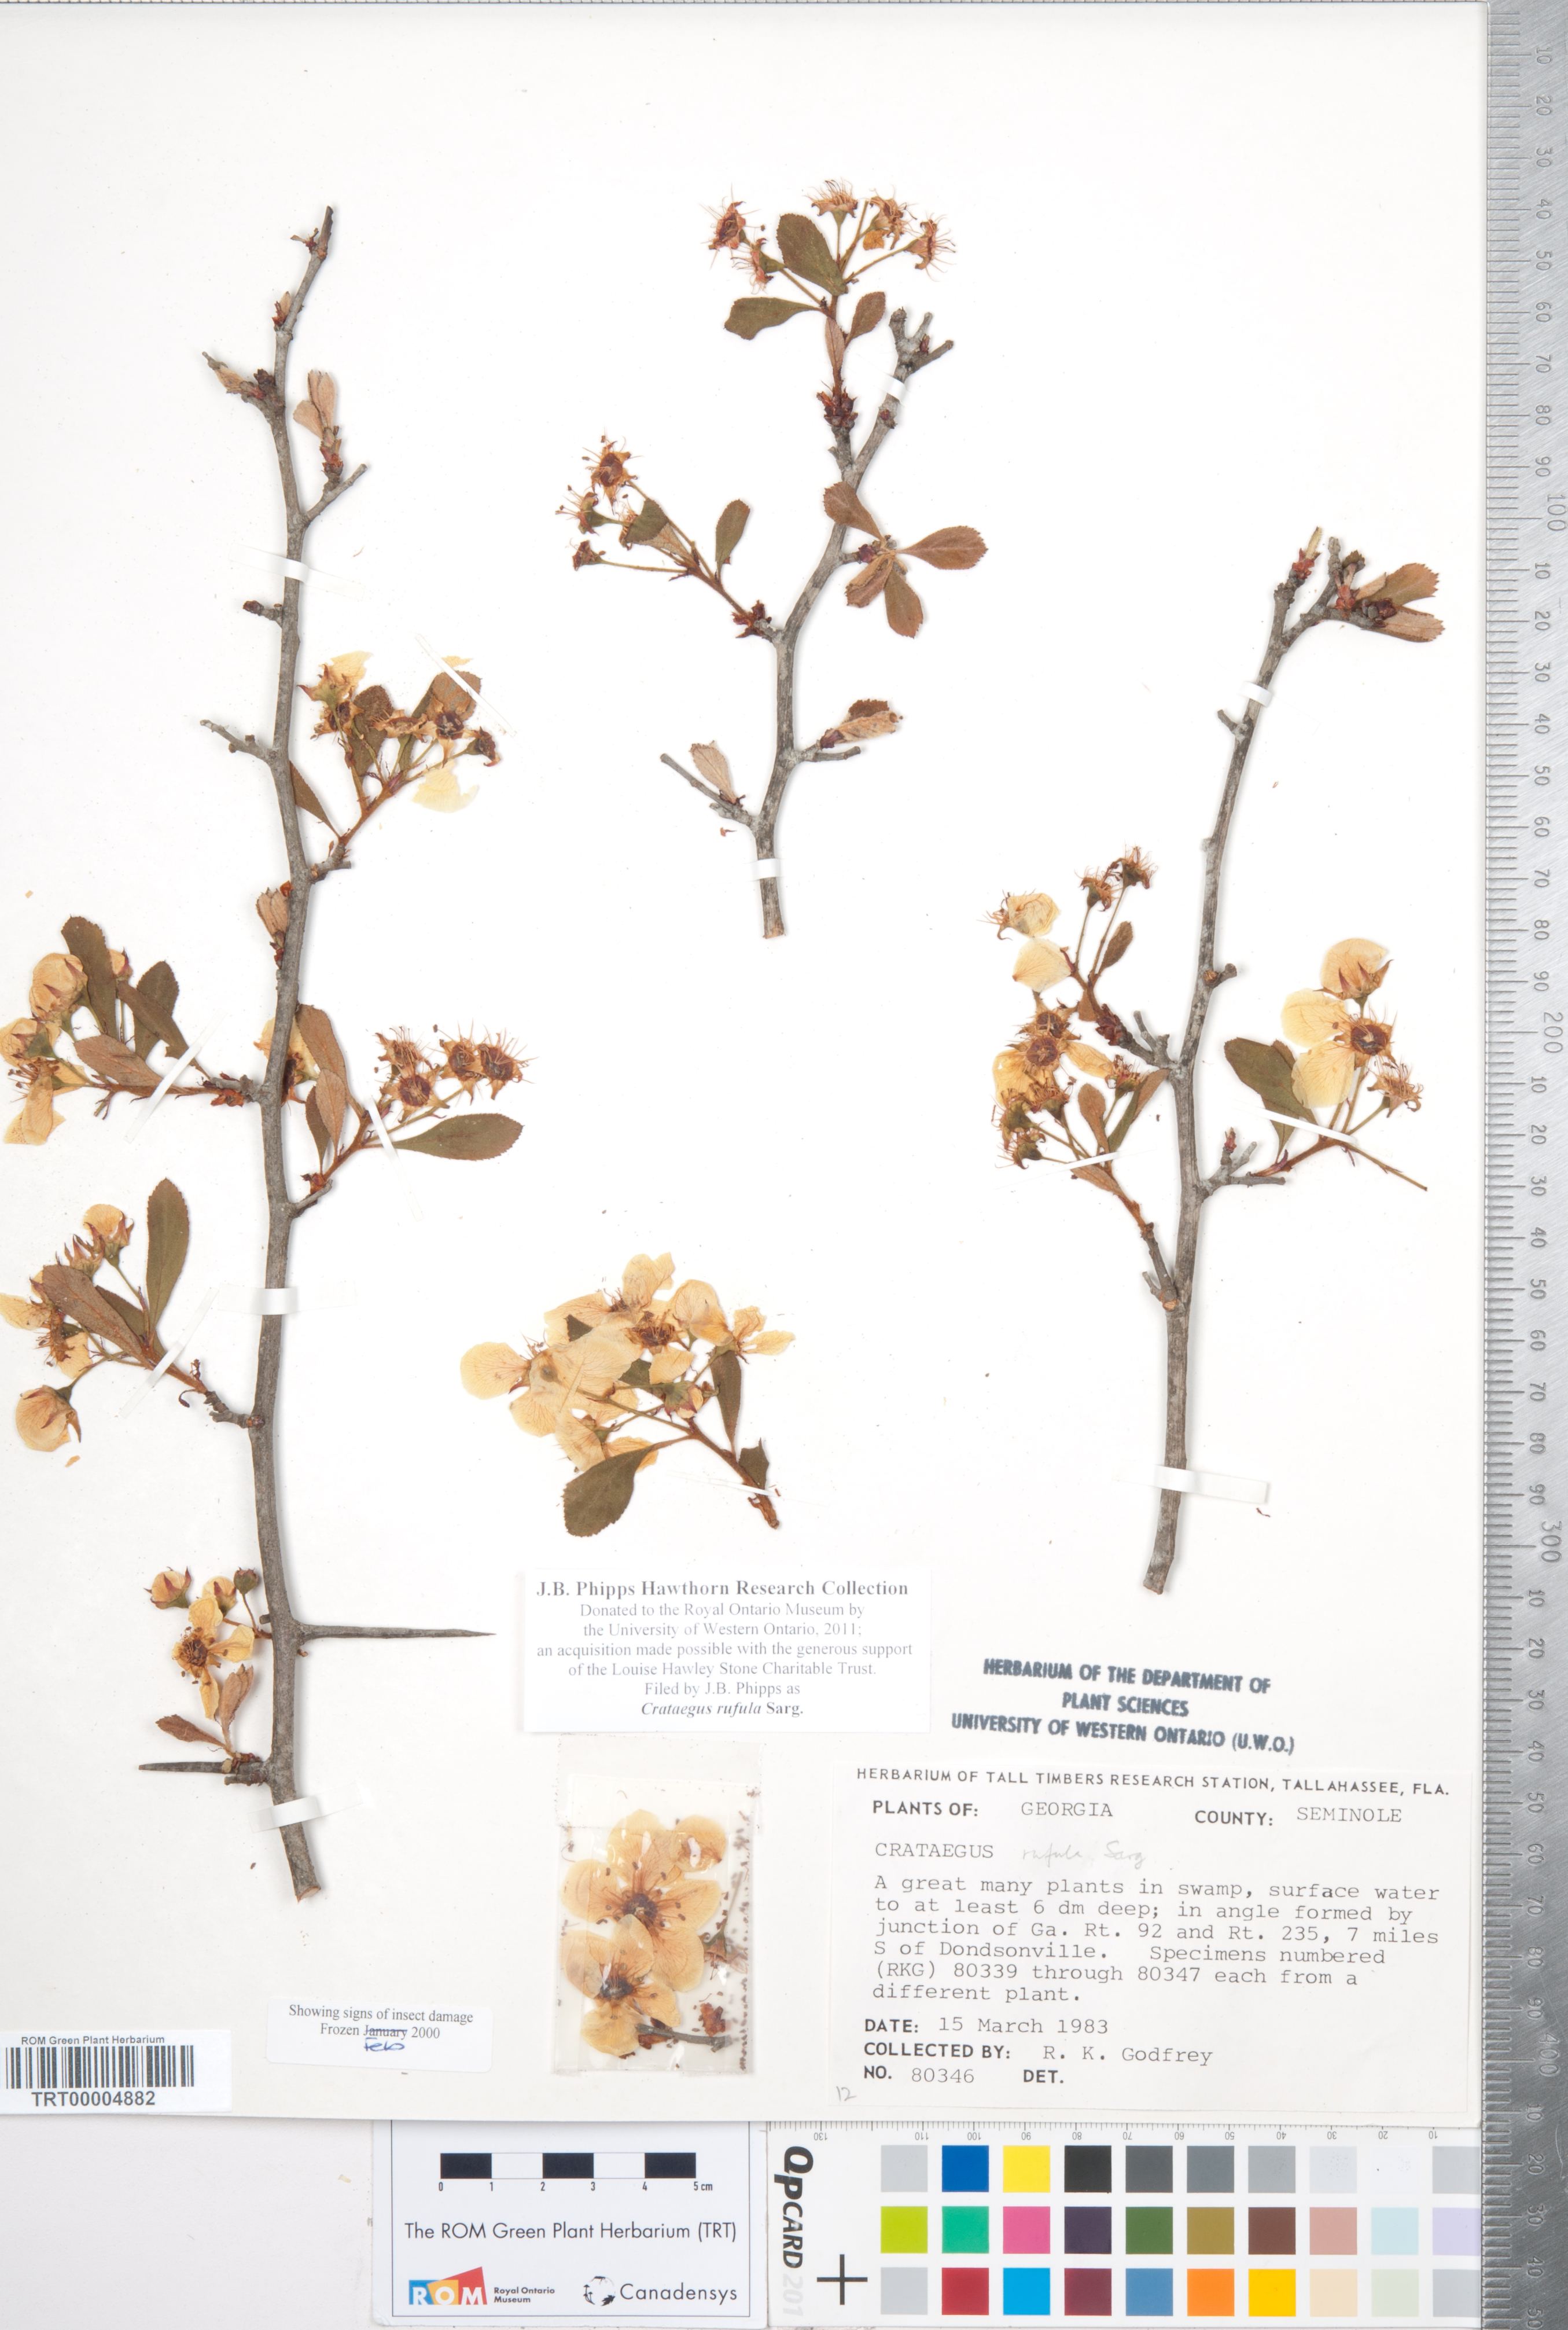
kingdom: Plantae
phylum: Tracheophyta
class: Magnoliopsida
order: Rosales
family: Rosaceae
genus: Crataegus
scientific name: Crataegus rufula
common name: Rufous mayhaw
